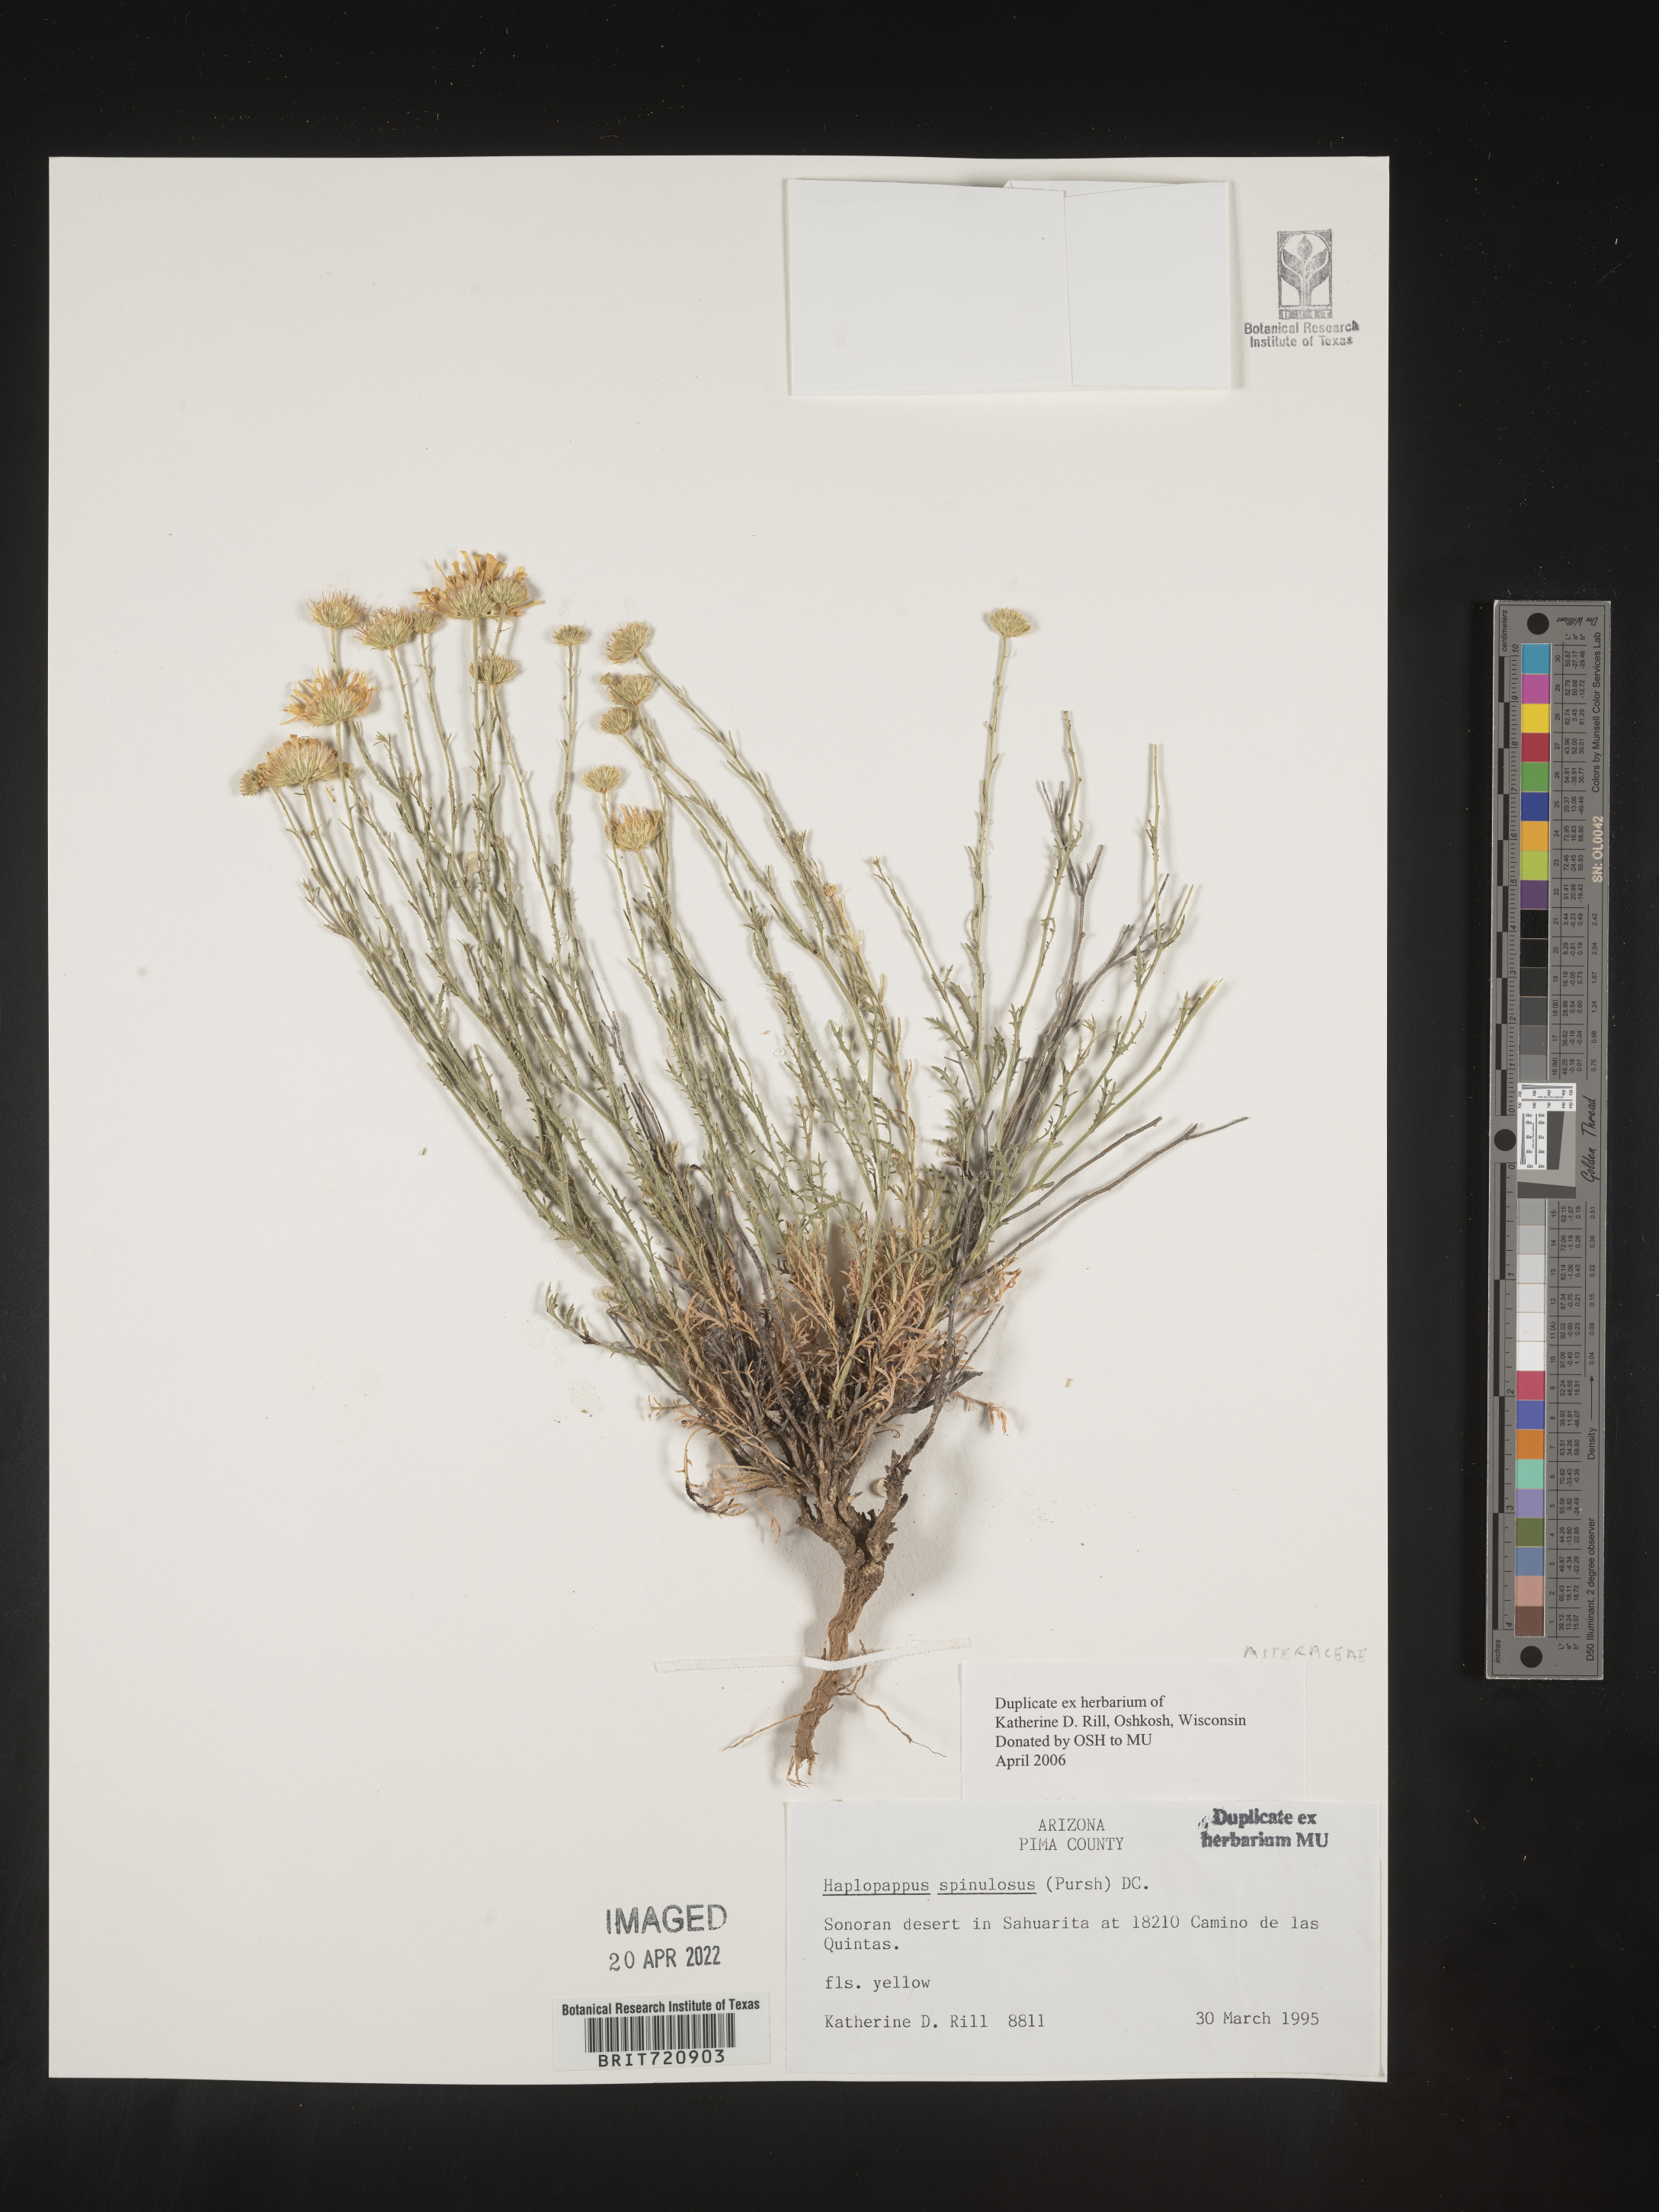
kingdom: Plantae
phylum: Tracheophyta
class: Magnoliopsida
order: Asterales
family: Asteraceae
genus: Haplopappus
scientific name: Haplopappus
